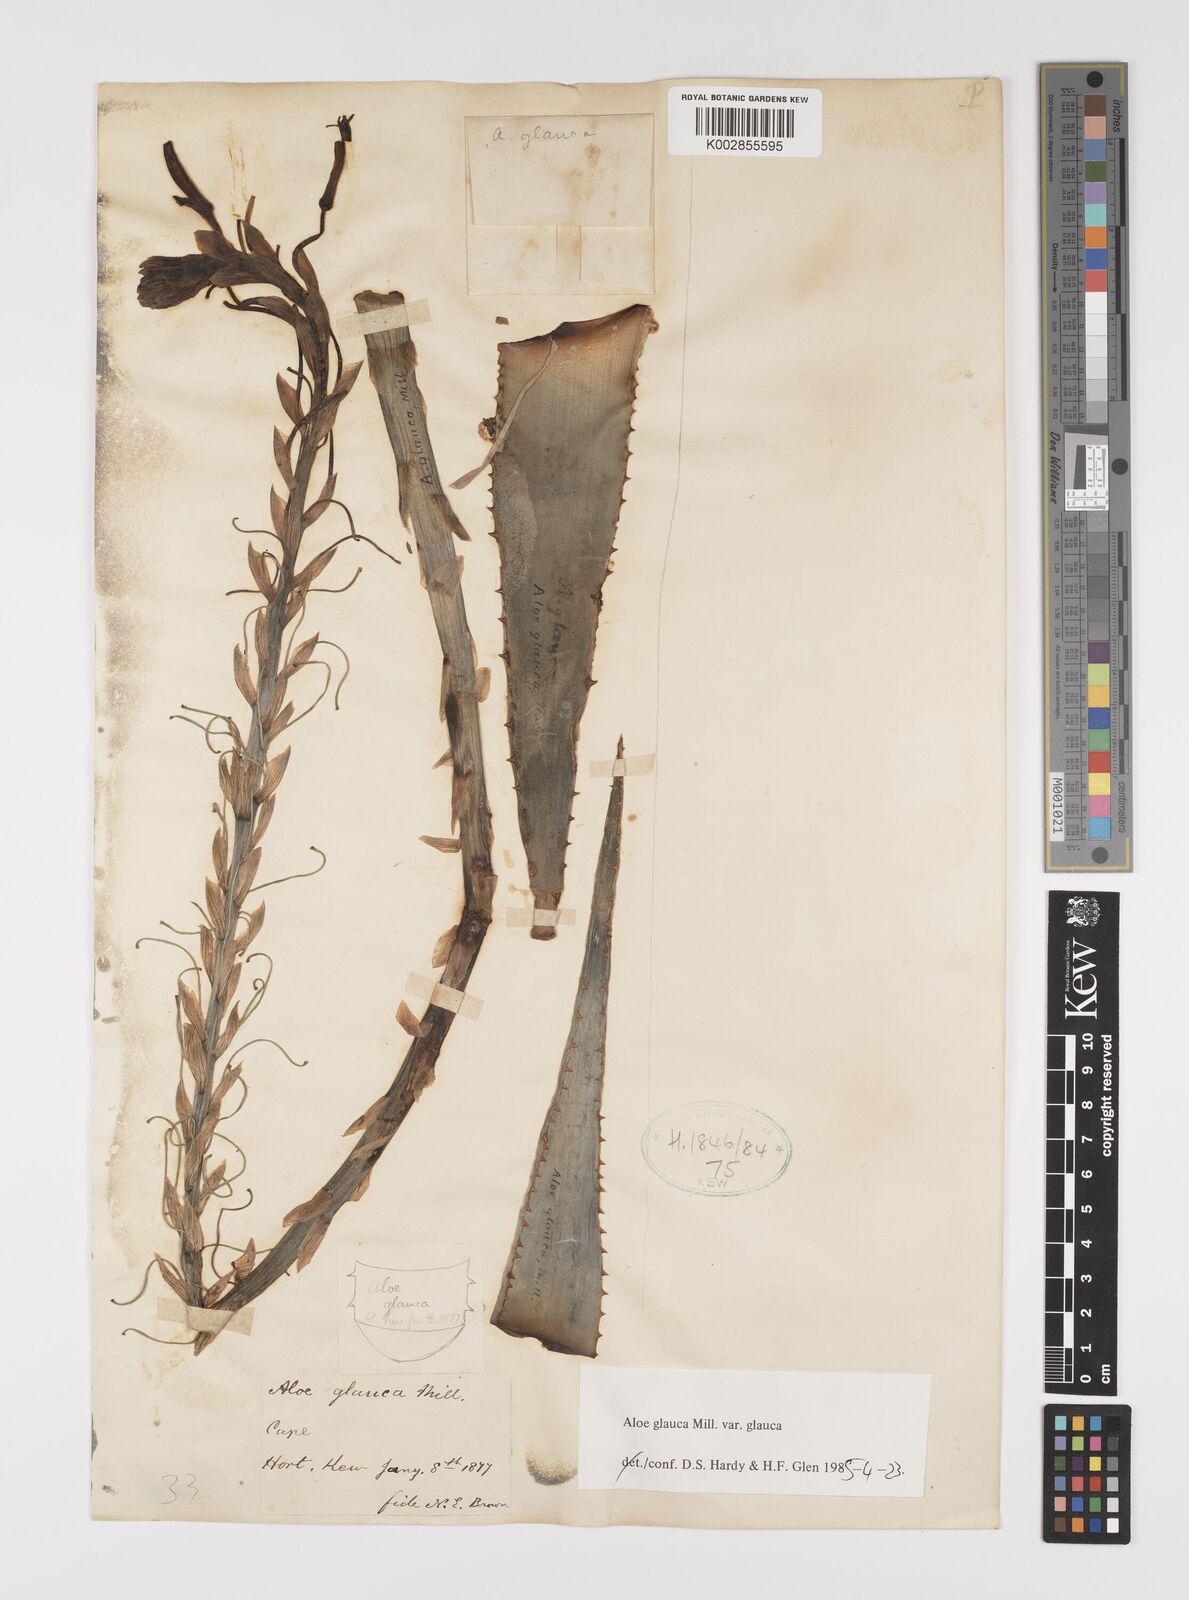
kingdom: Plantae
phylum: Tracheophyta
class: Liliopsida
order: Asparagales
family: Asphodelaceae
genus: Aloe
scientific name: Aloe glauca
